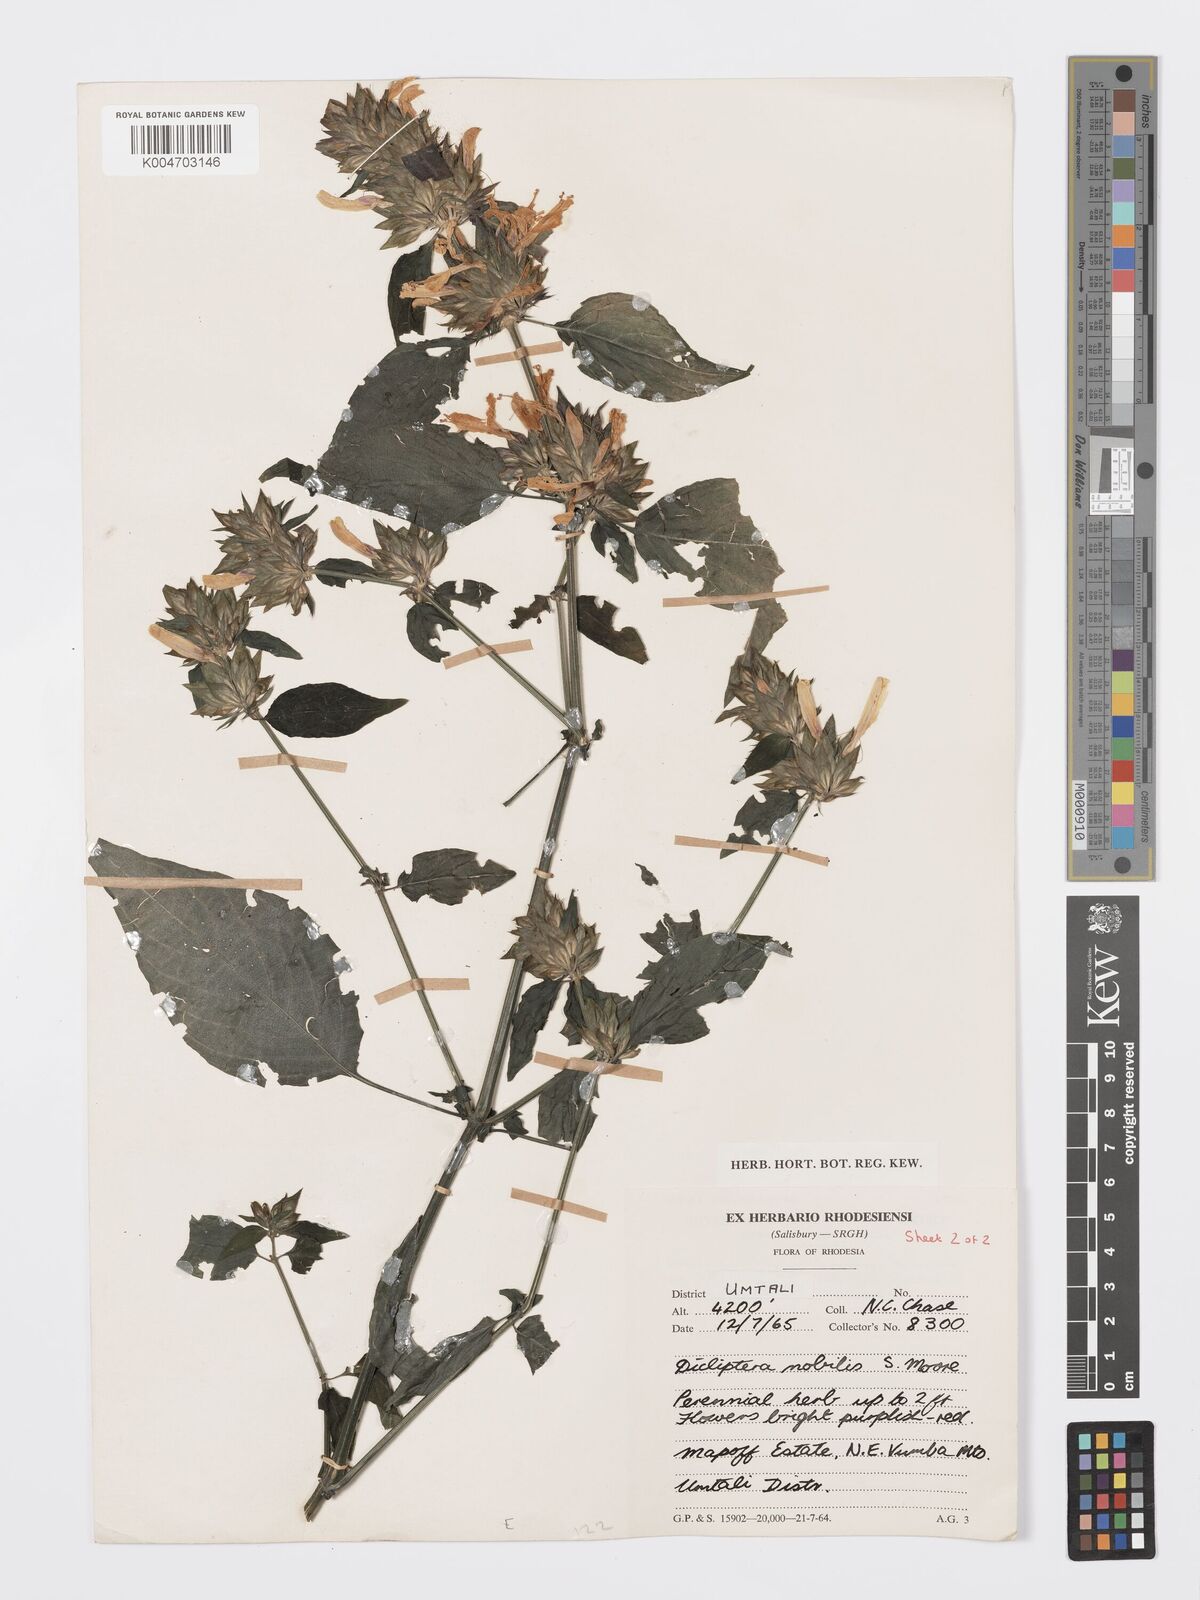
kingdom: Plantae
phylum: Tracheophyta
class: Magnoliopsida
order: Lamiales
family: Acanthaceae
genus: Dicliptera
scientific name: Dicliptera clinopodia
